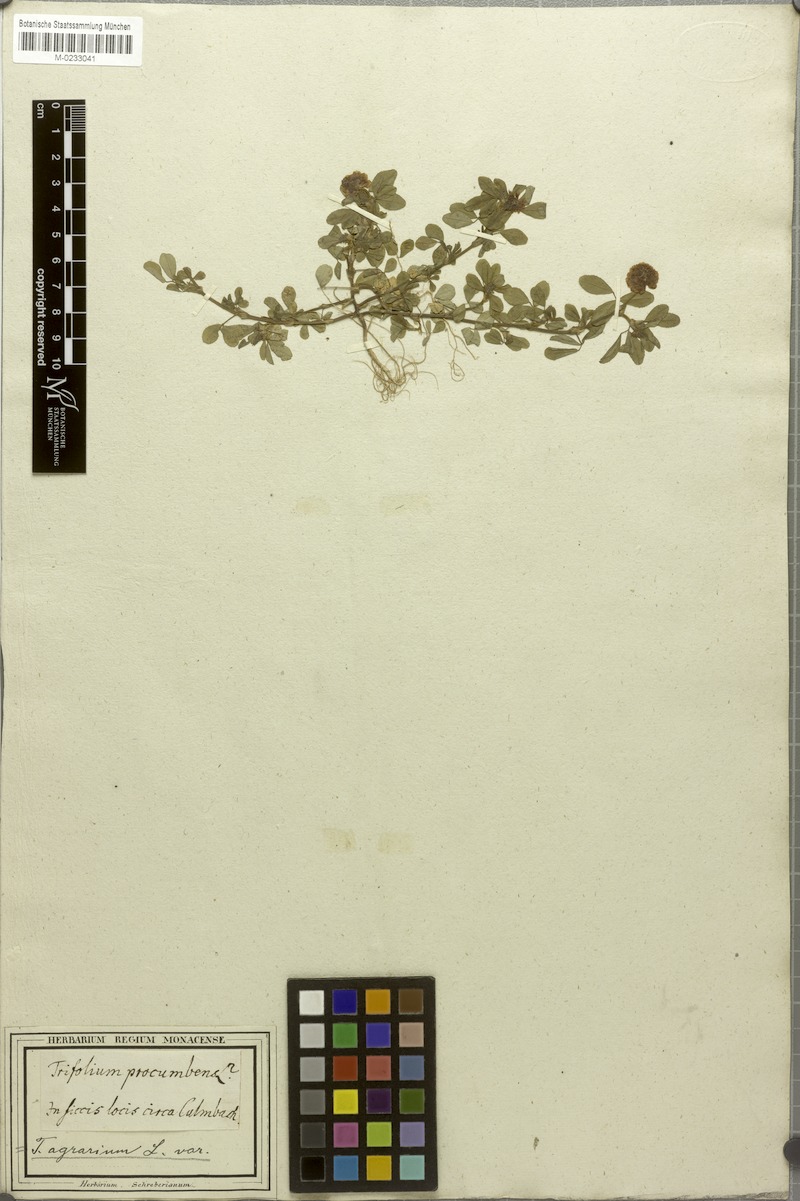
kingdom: Plantae
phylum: Tracheophyta
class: Magnoliopsida
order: Fabales
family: Fabaceae
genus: Trifolium
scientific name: Trifolium campestre
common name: Field clover
